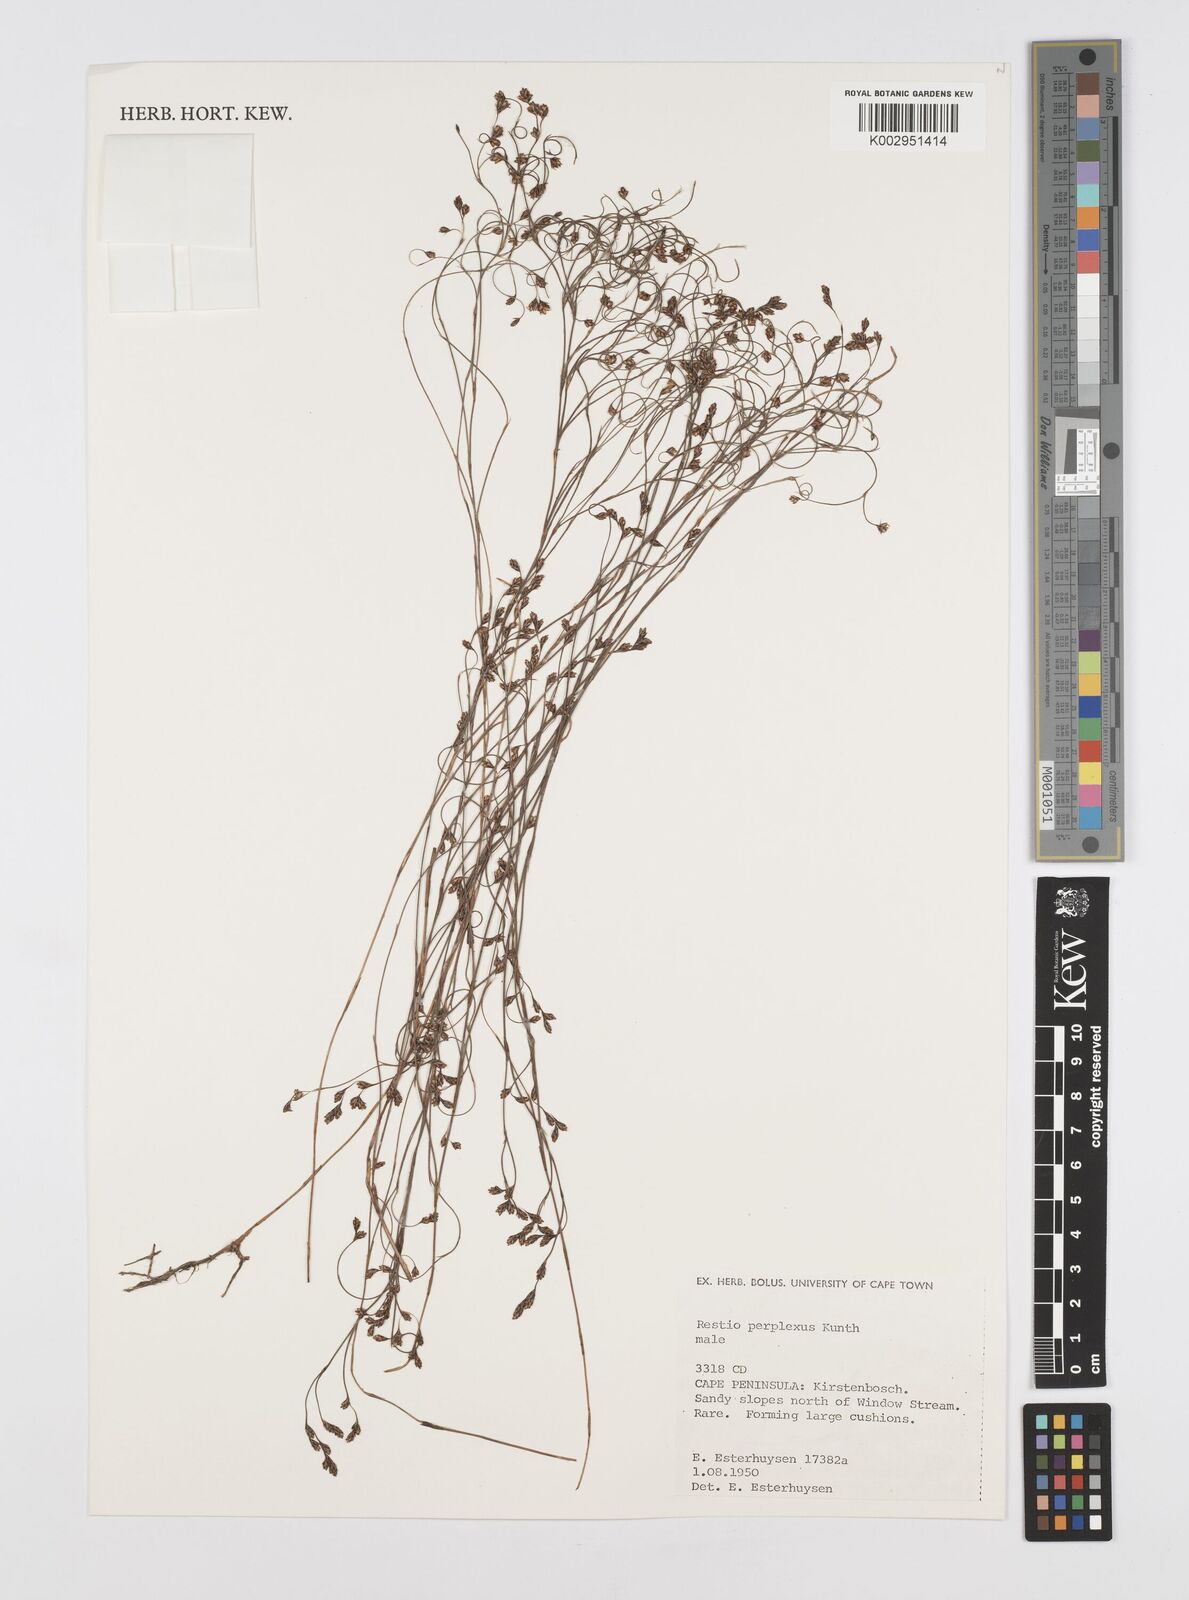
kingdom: Plantae
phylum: Tracheophyta
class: Liliopsida
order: Poales
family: Restionaceae
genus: Restio
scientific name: Restio perplexus
